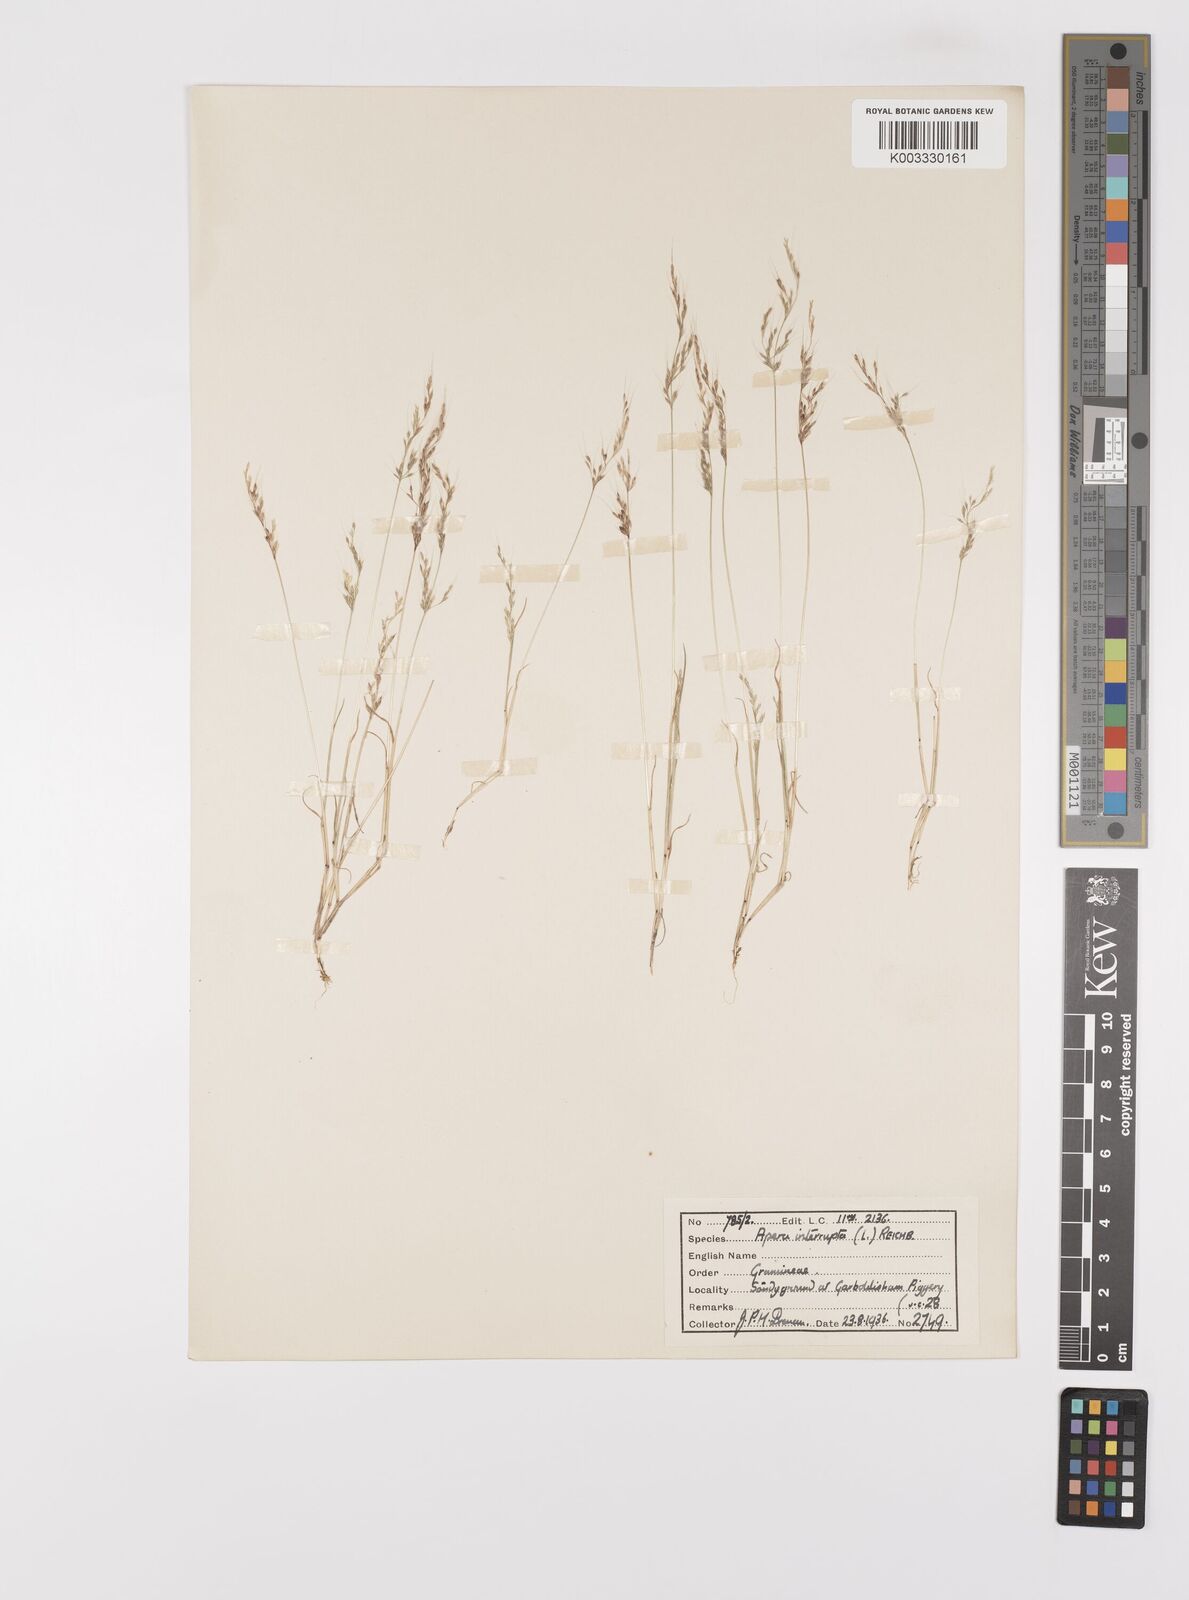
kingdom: Plantae
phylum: Tracheophyta
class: Liliopsida
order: Poales
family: Poaceae
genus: Apera
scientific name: Apera interrupta
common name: Dense silky-bent
